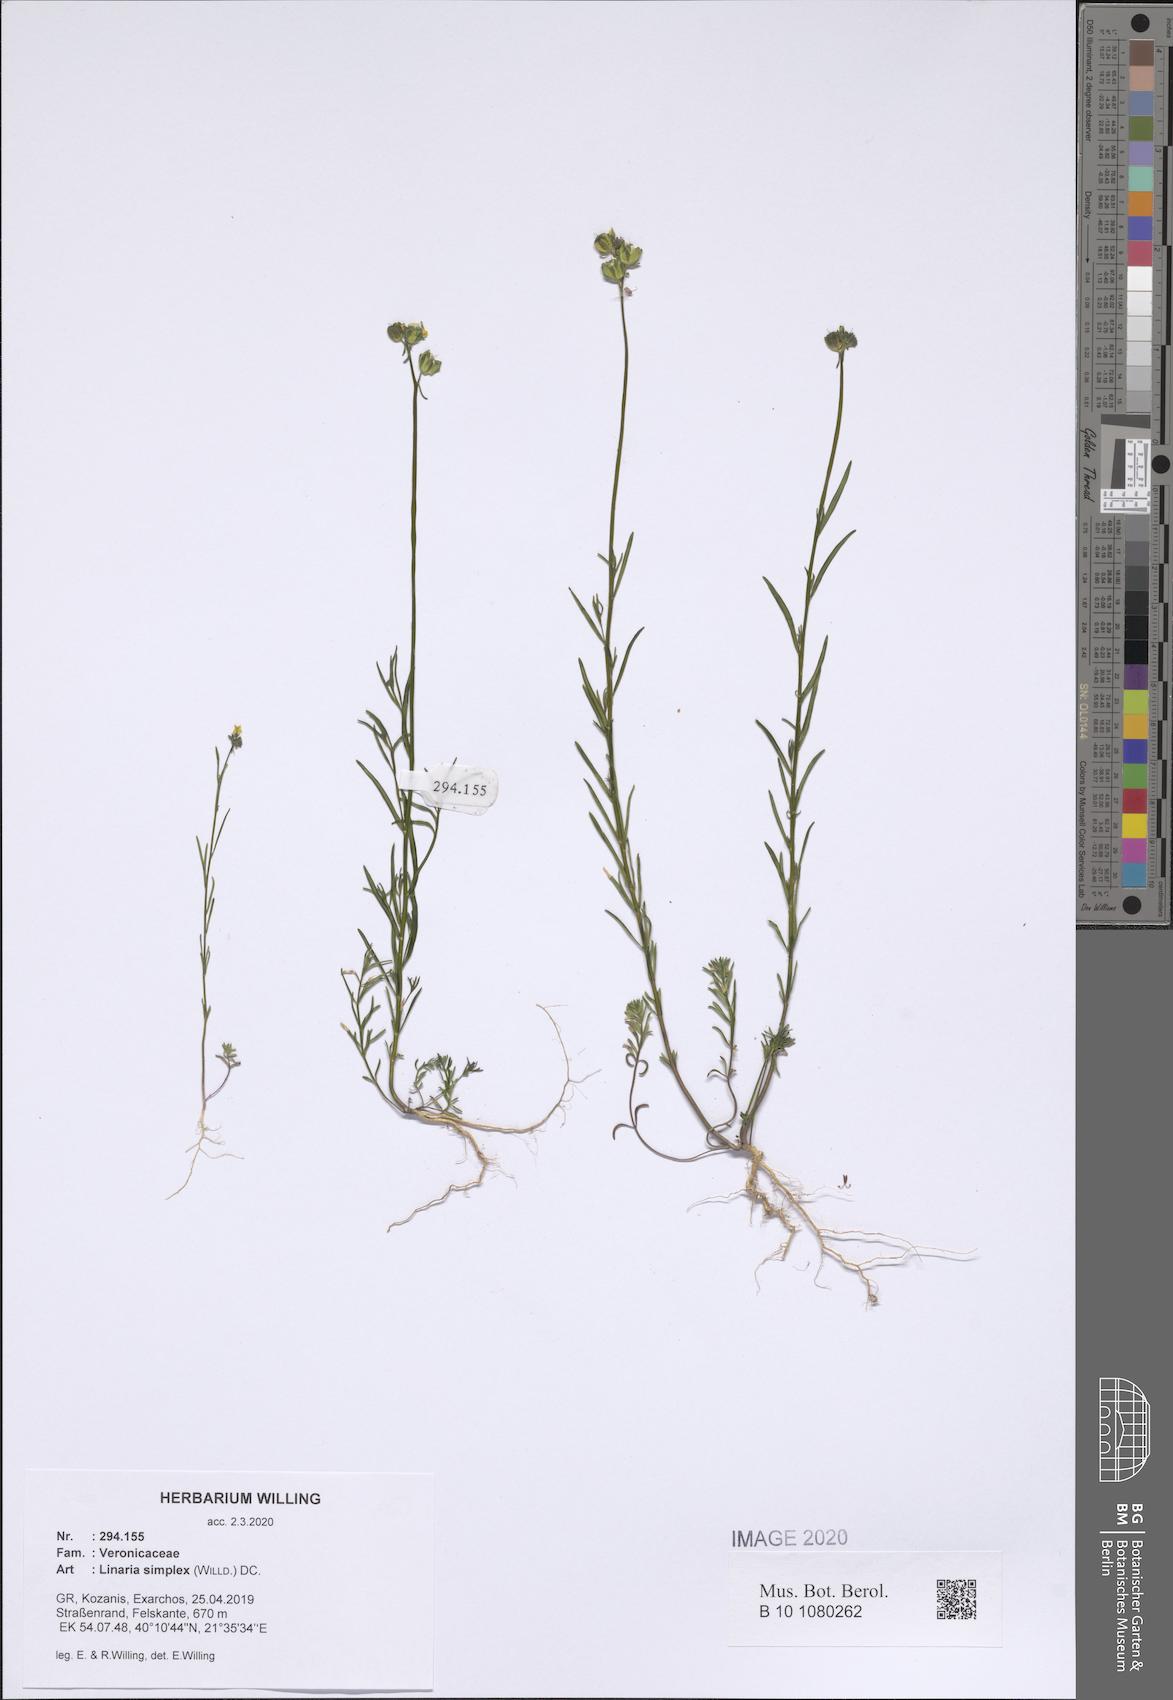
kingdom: Plantae
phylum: Tracheophyta
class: Magnoliopsida
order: Lamiales
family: Plantaginaceae
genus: Linaria
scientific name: Linaria simplex
